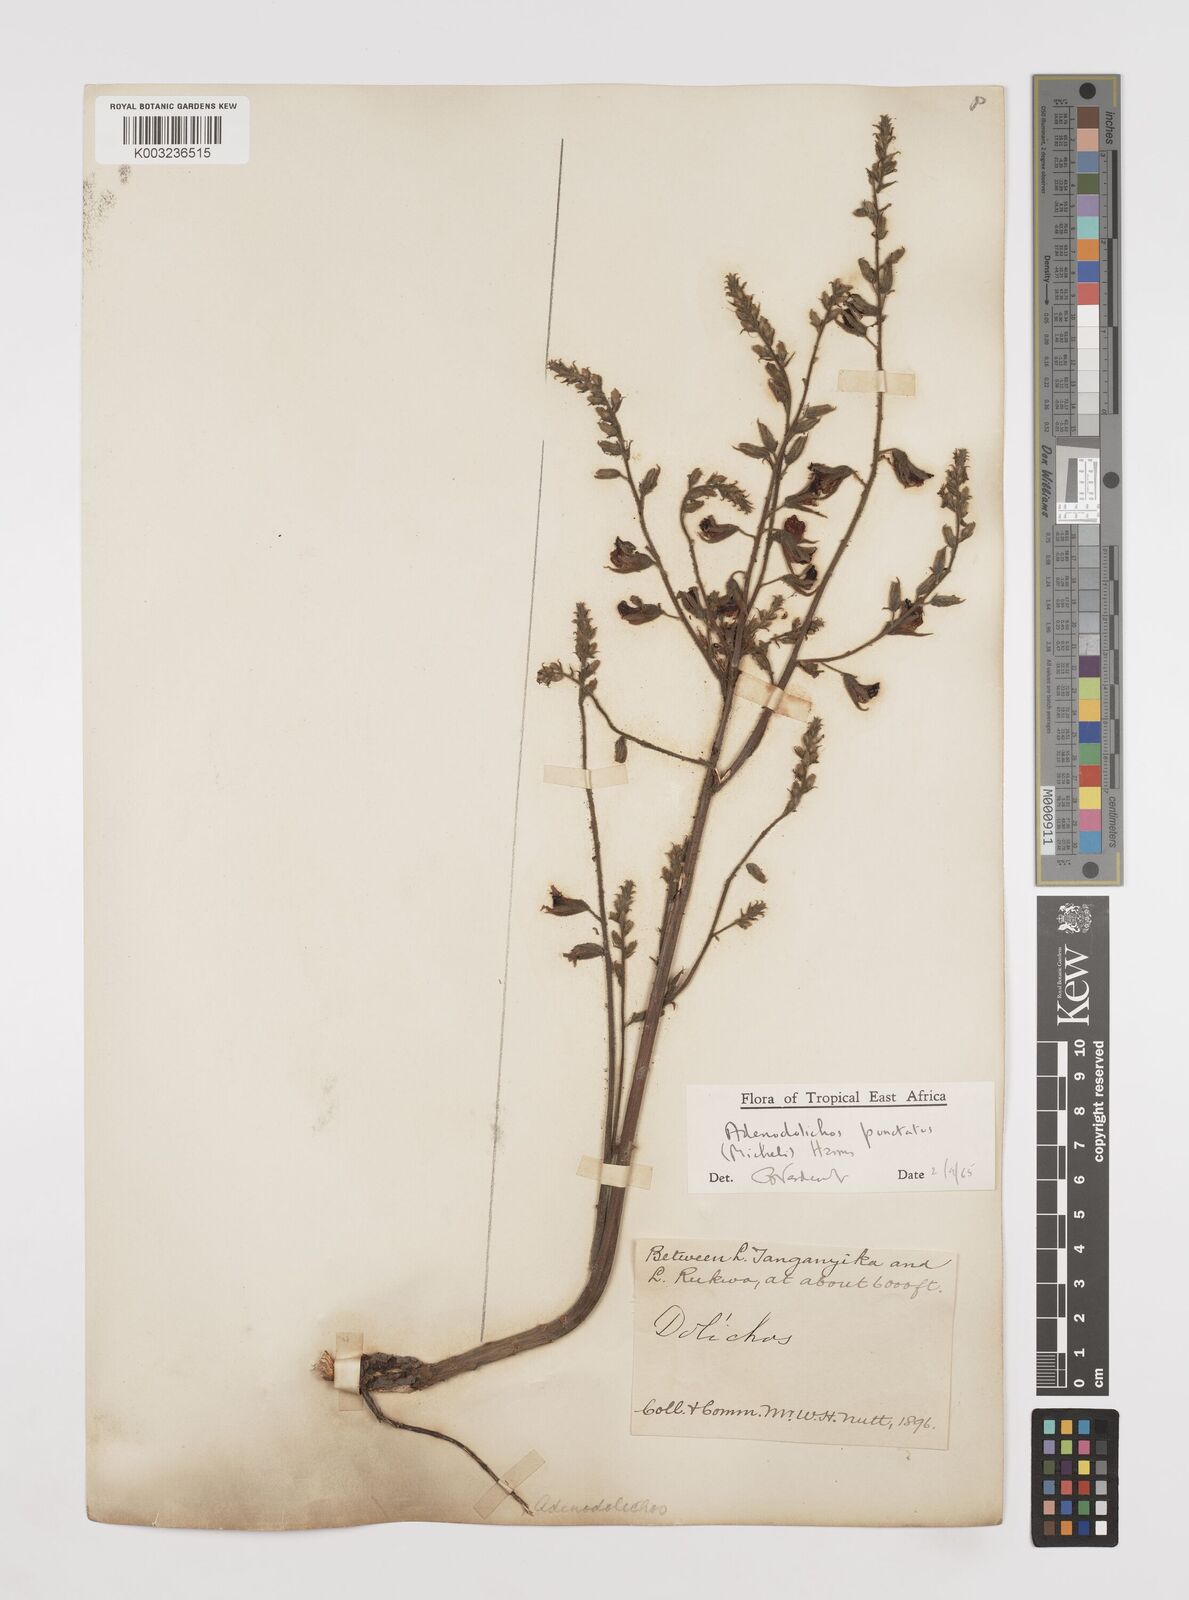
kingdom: Plantae
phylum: Tracheophyta
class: Magnoliopsida
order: Fabales
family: Fabaceae
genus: Adenodolichos
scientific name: Adenodolichos punctatus
